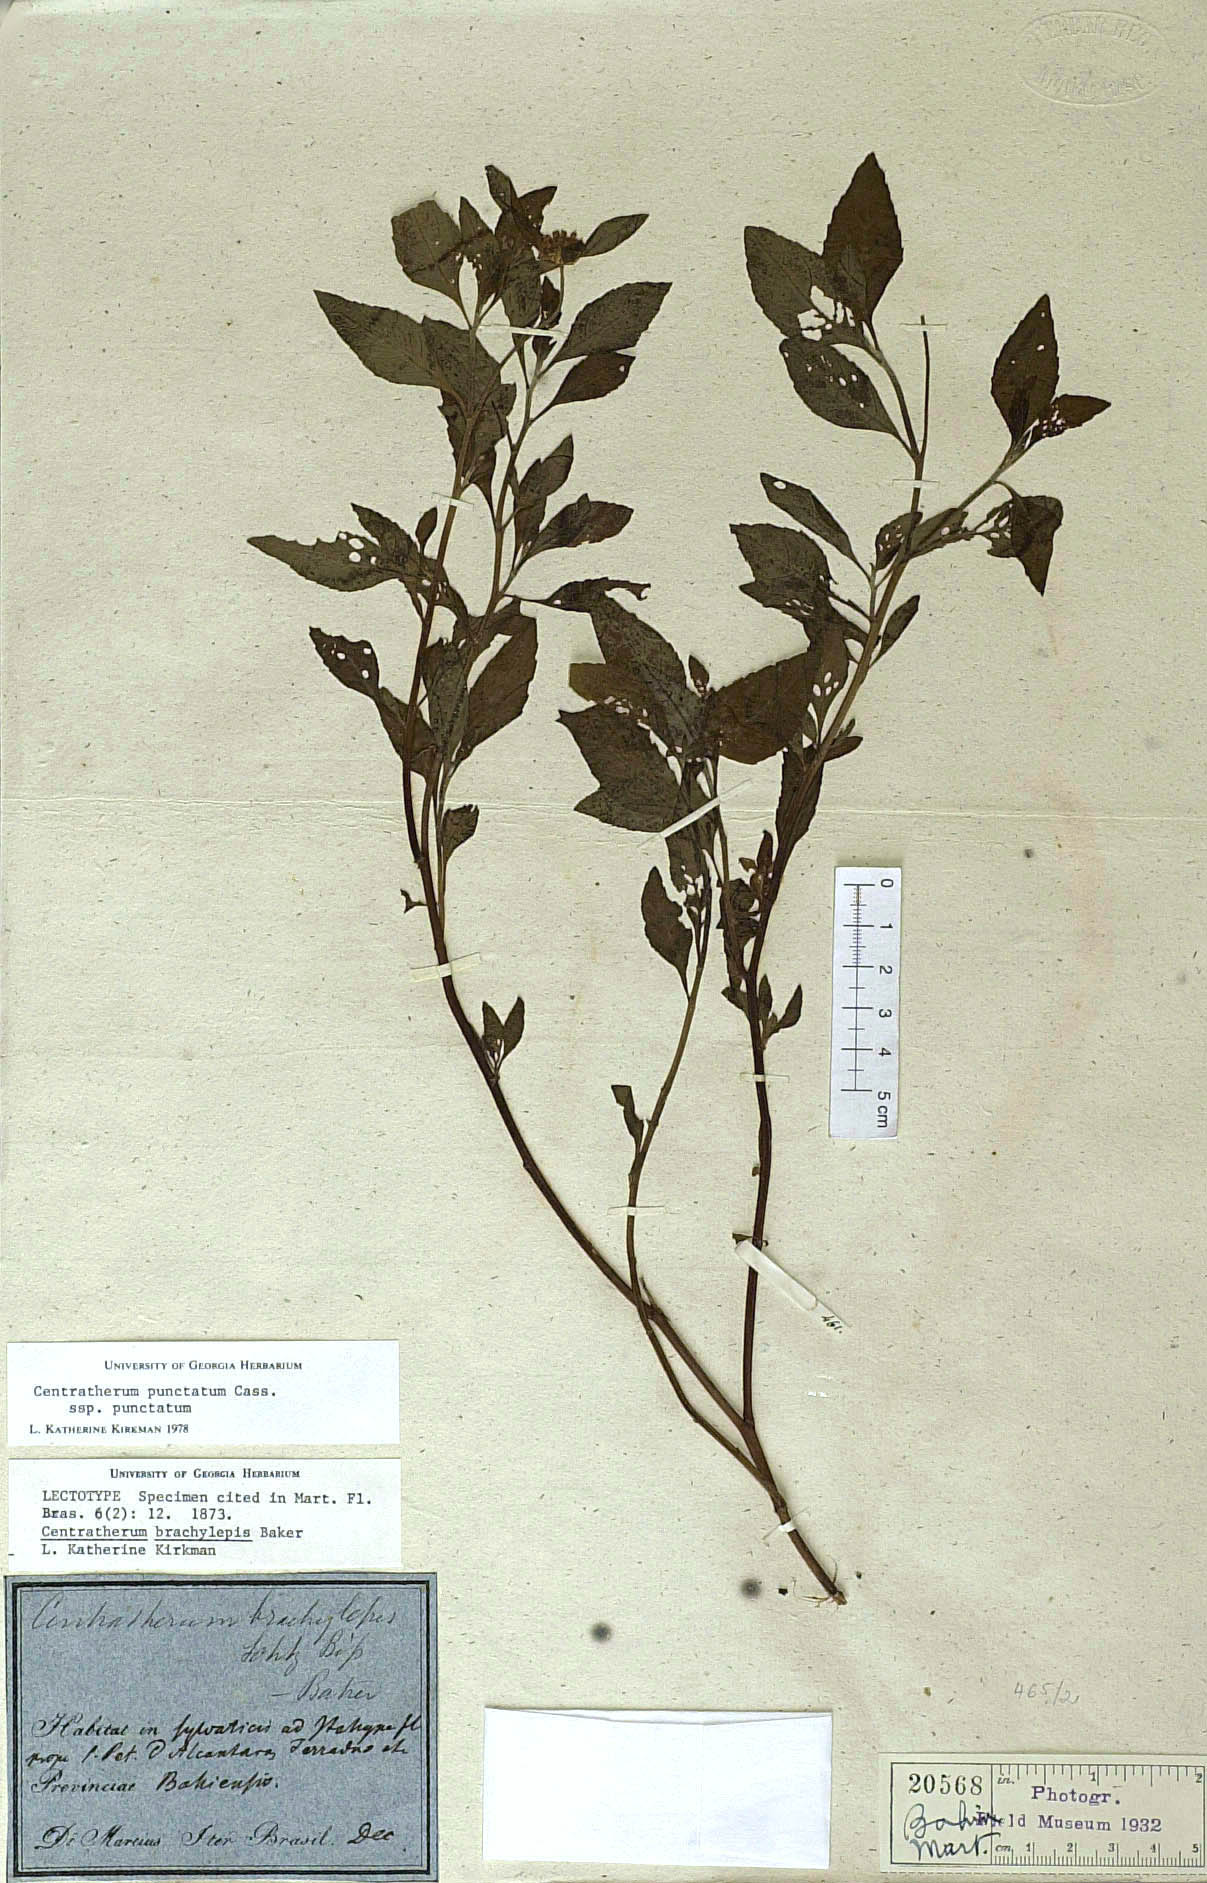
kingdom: Plantae
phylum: Tracheophyta
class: Magnoliopsida
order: Asterales
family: Asteraceae
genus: Centratherum
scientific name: Centratherum punctatum
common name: Larkdaisy
